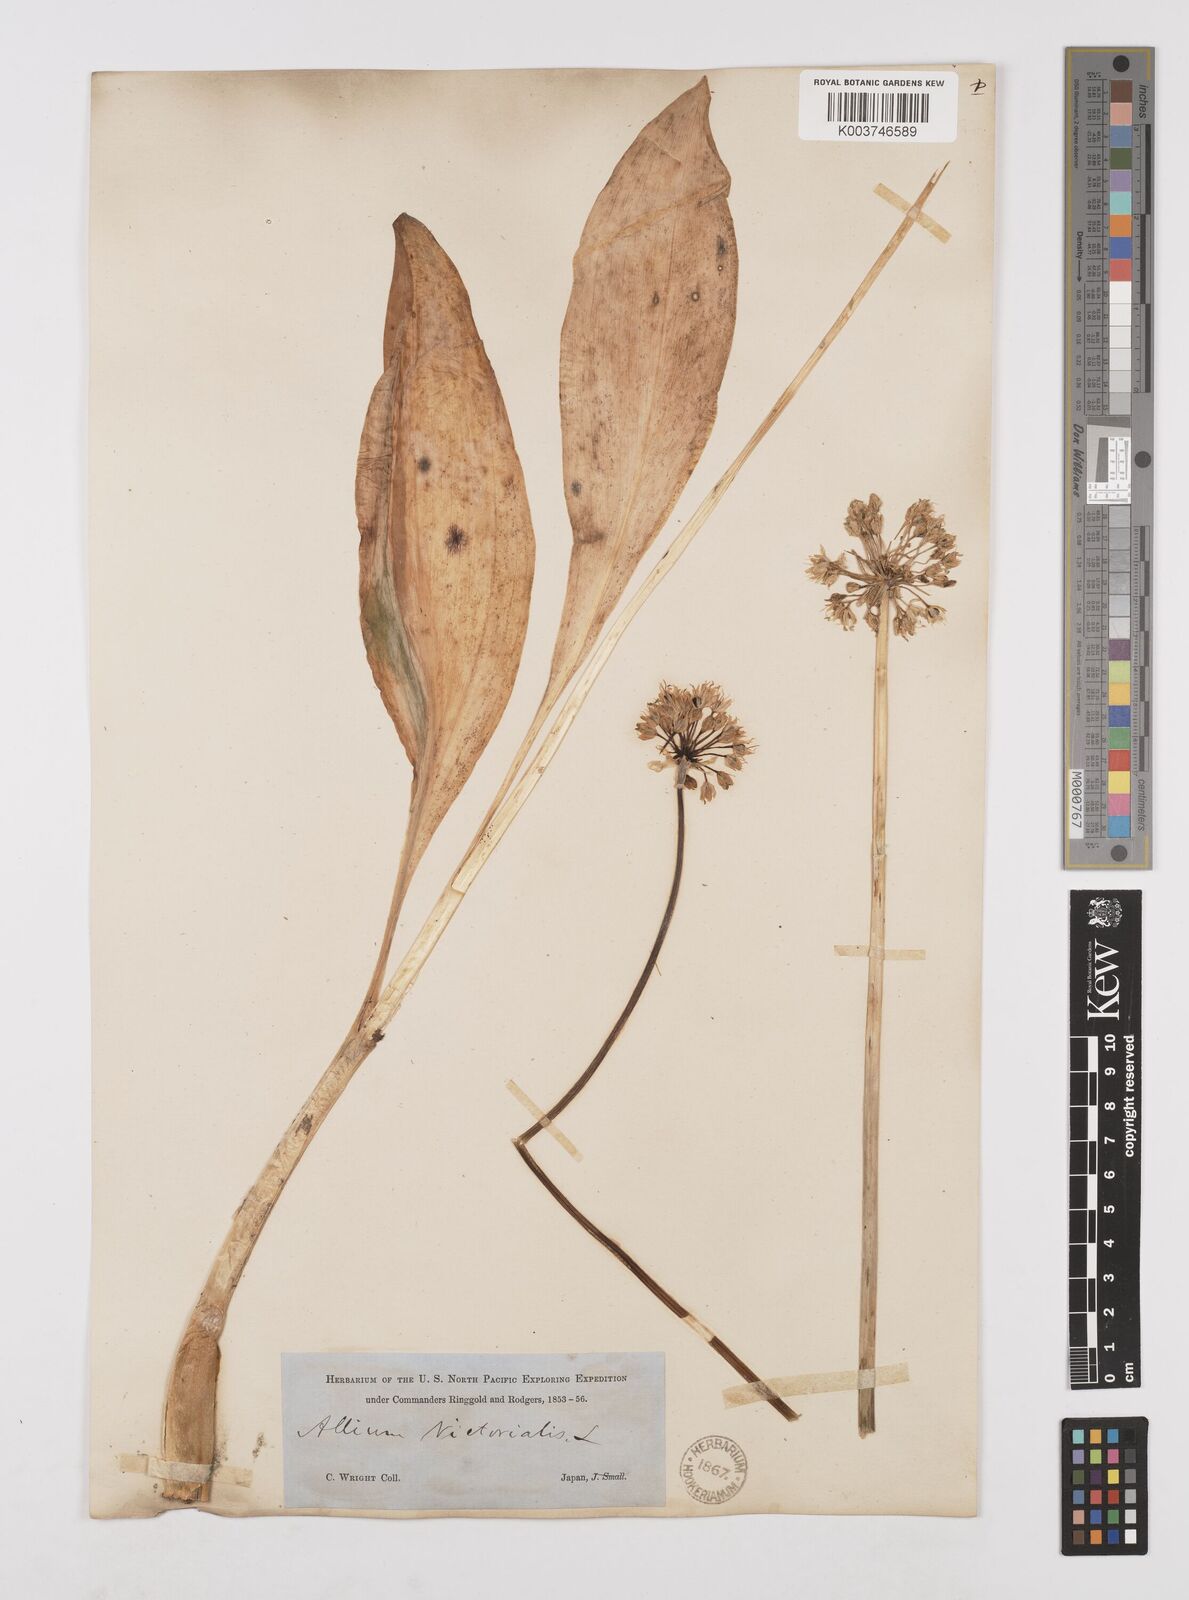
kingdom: Plantae
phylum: Tracheophyta
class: Liliopsida
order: Asparagales
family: Amaryllidaceae
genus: Allium
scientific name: Allium victorialis
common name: Alpine leek
